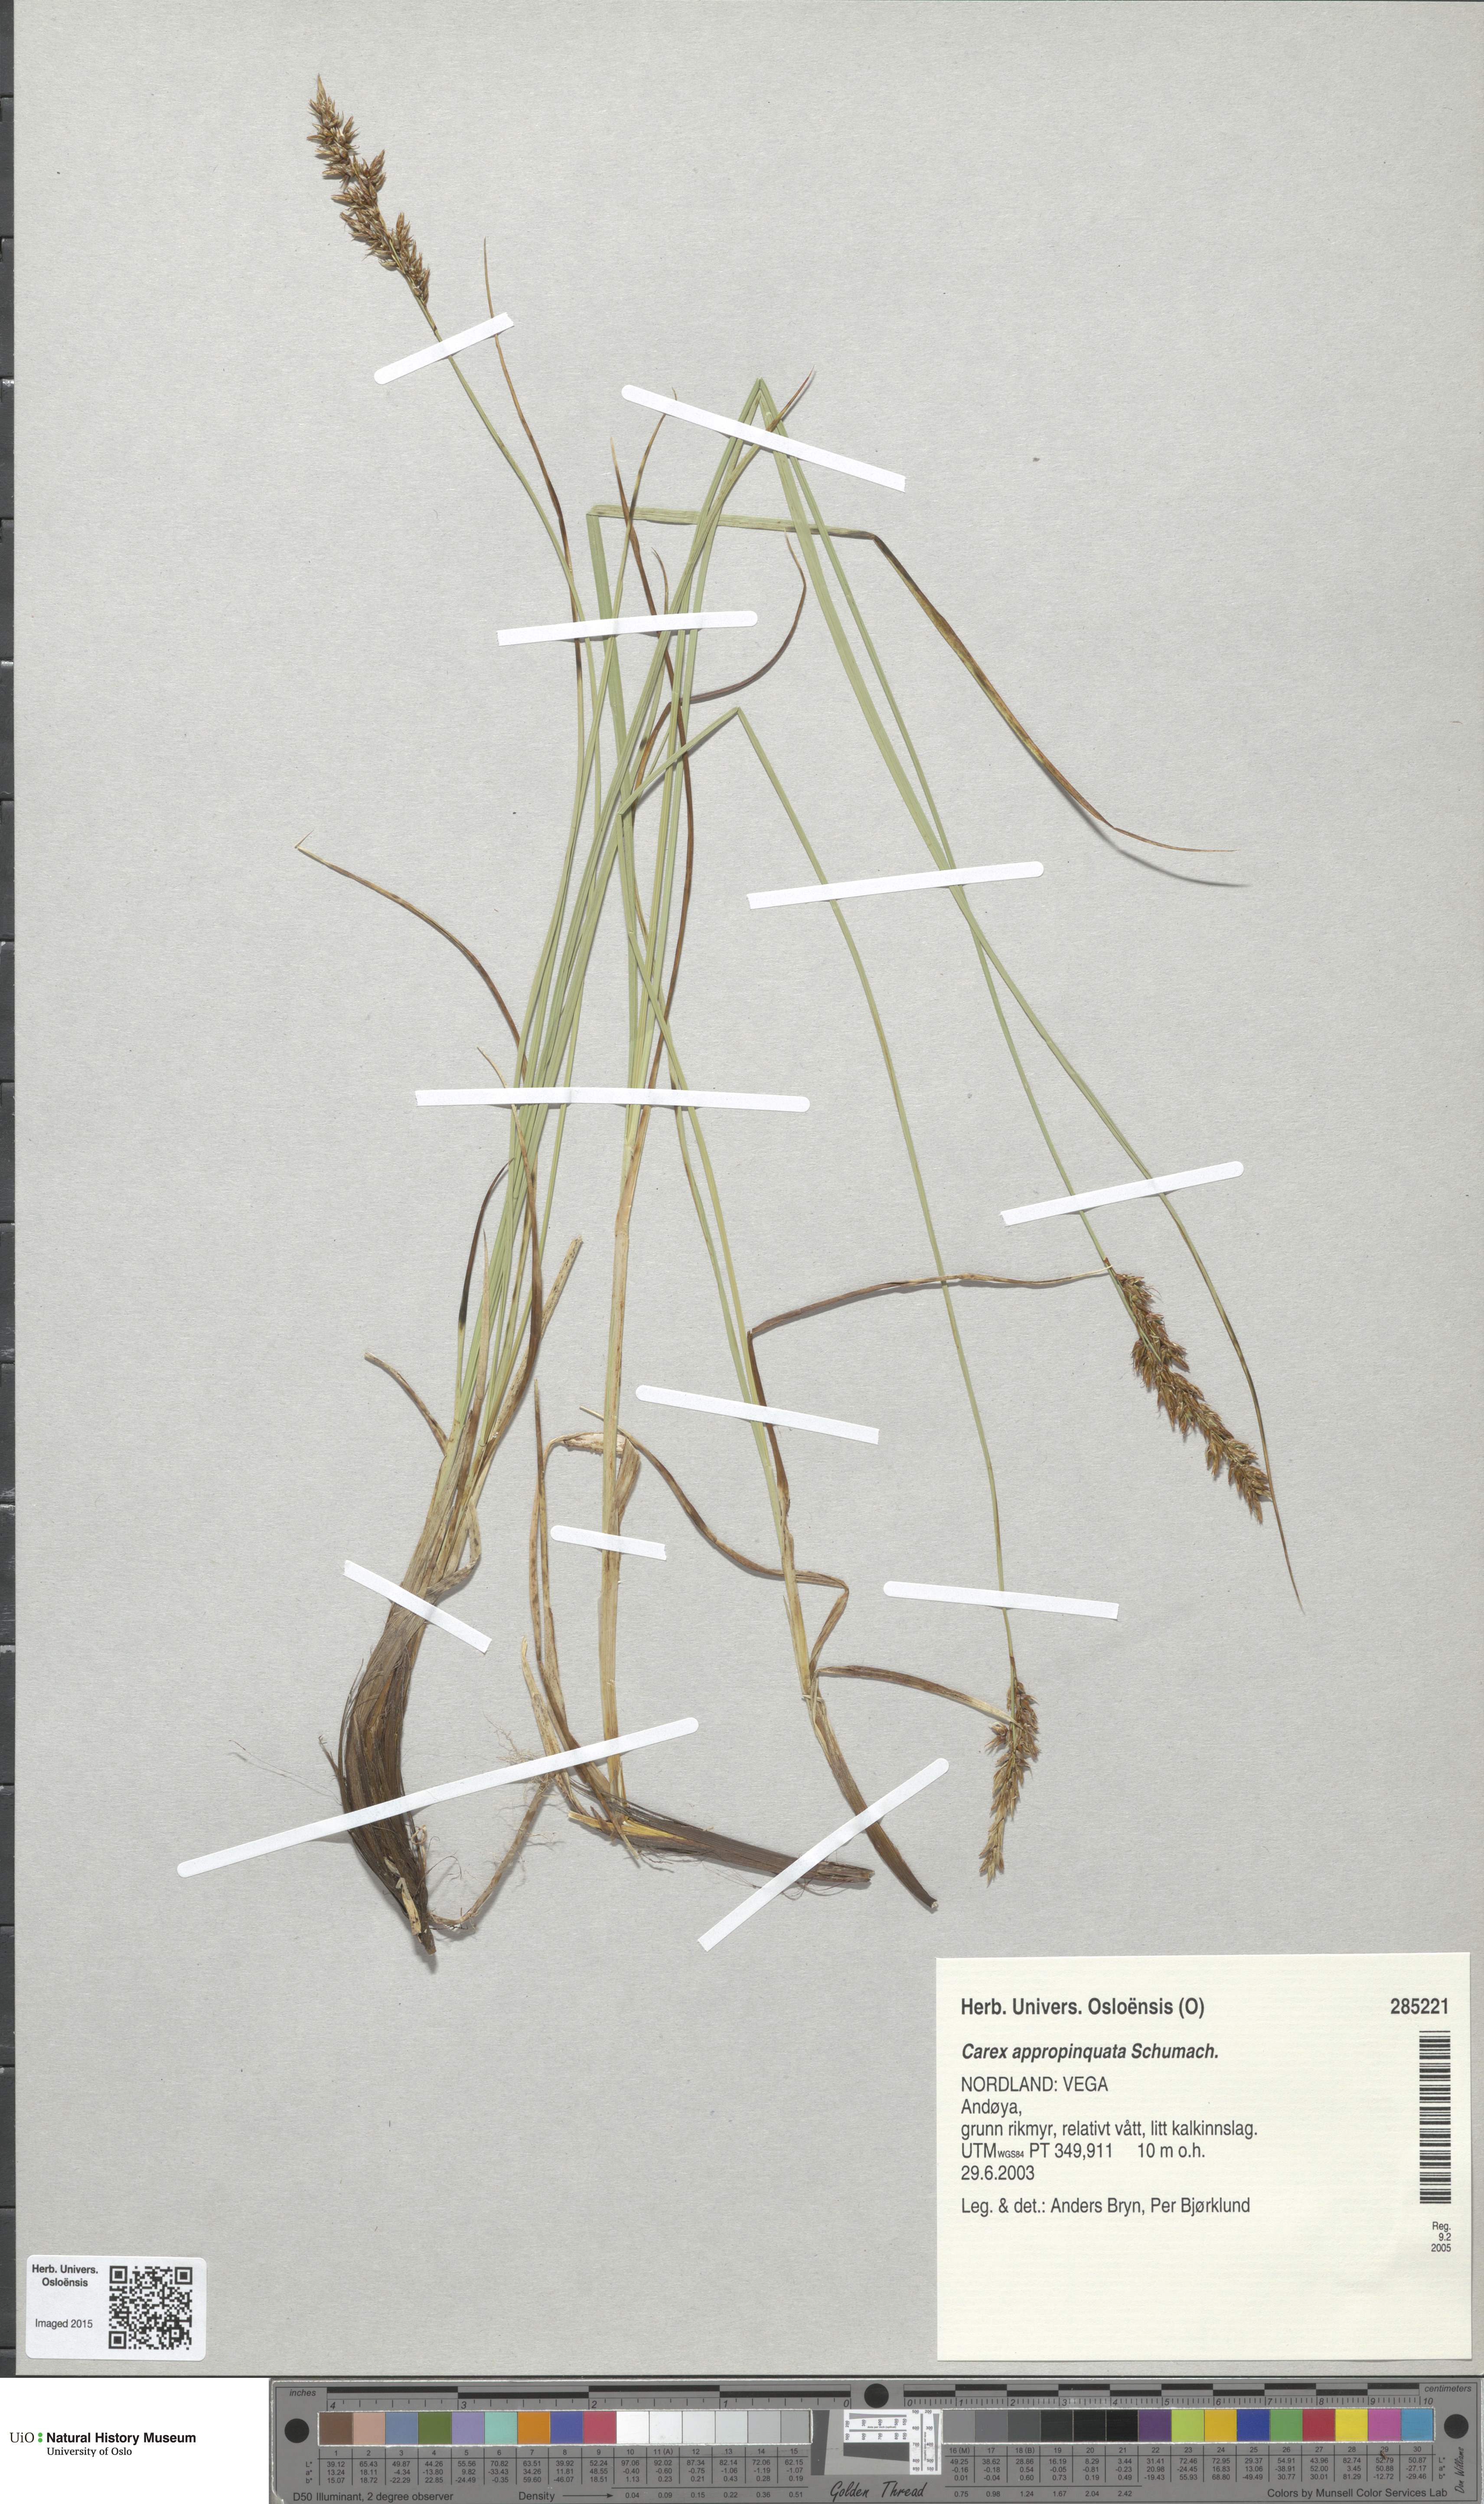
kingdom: Plantae
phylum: Tracheophyta
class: Liliopsida
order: Poales
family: Cyperaceae
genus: Carex
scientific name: Carex appropinquata
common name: Fibrous tussock-sedge
